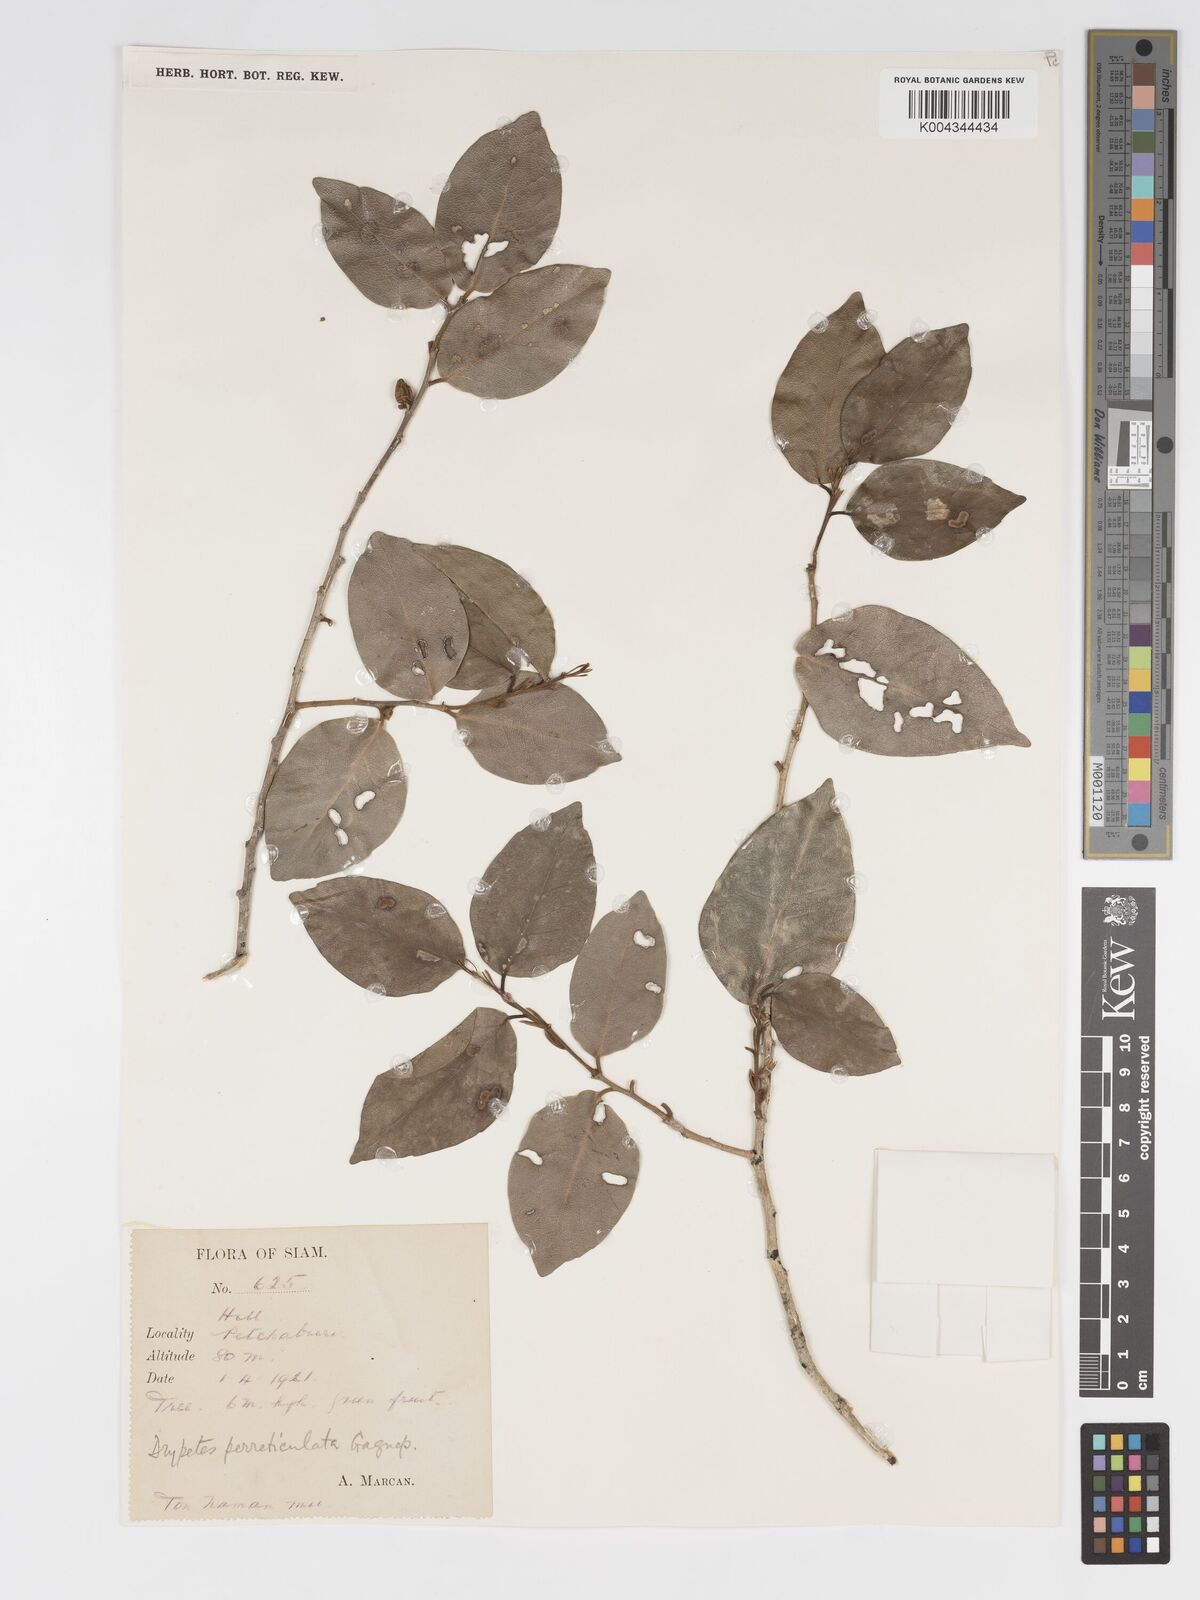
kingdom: Plantae
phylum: Tracheophyta
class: Magnoliopsida
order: Malpighiales
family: Putranjivaceae
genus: Drypetes
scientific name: Drypetes perreticulata
